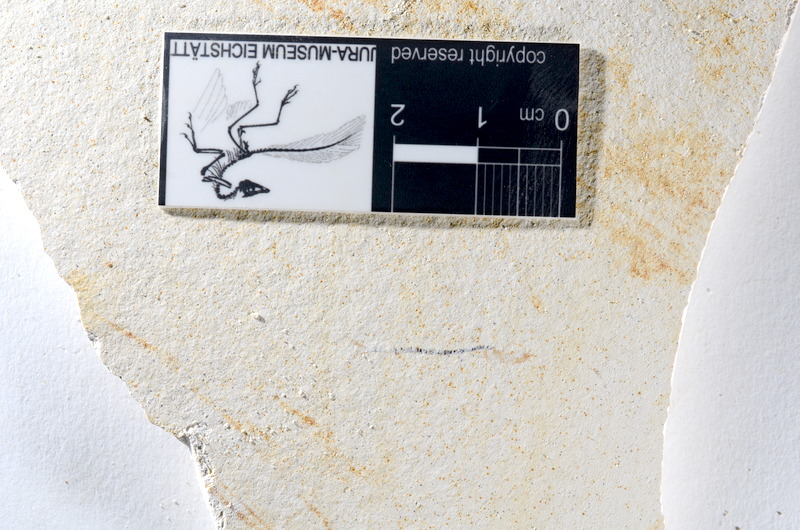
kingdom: Animalia
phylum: Chordata
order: Salmoniformes
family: Orthogonikleithridae
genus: Orthogonikleithrus
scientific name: Orthogonikleithrus hoelli
